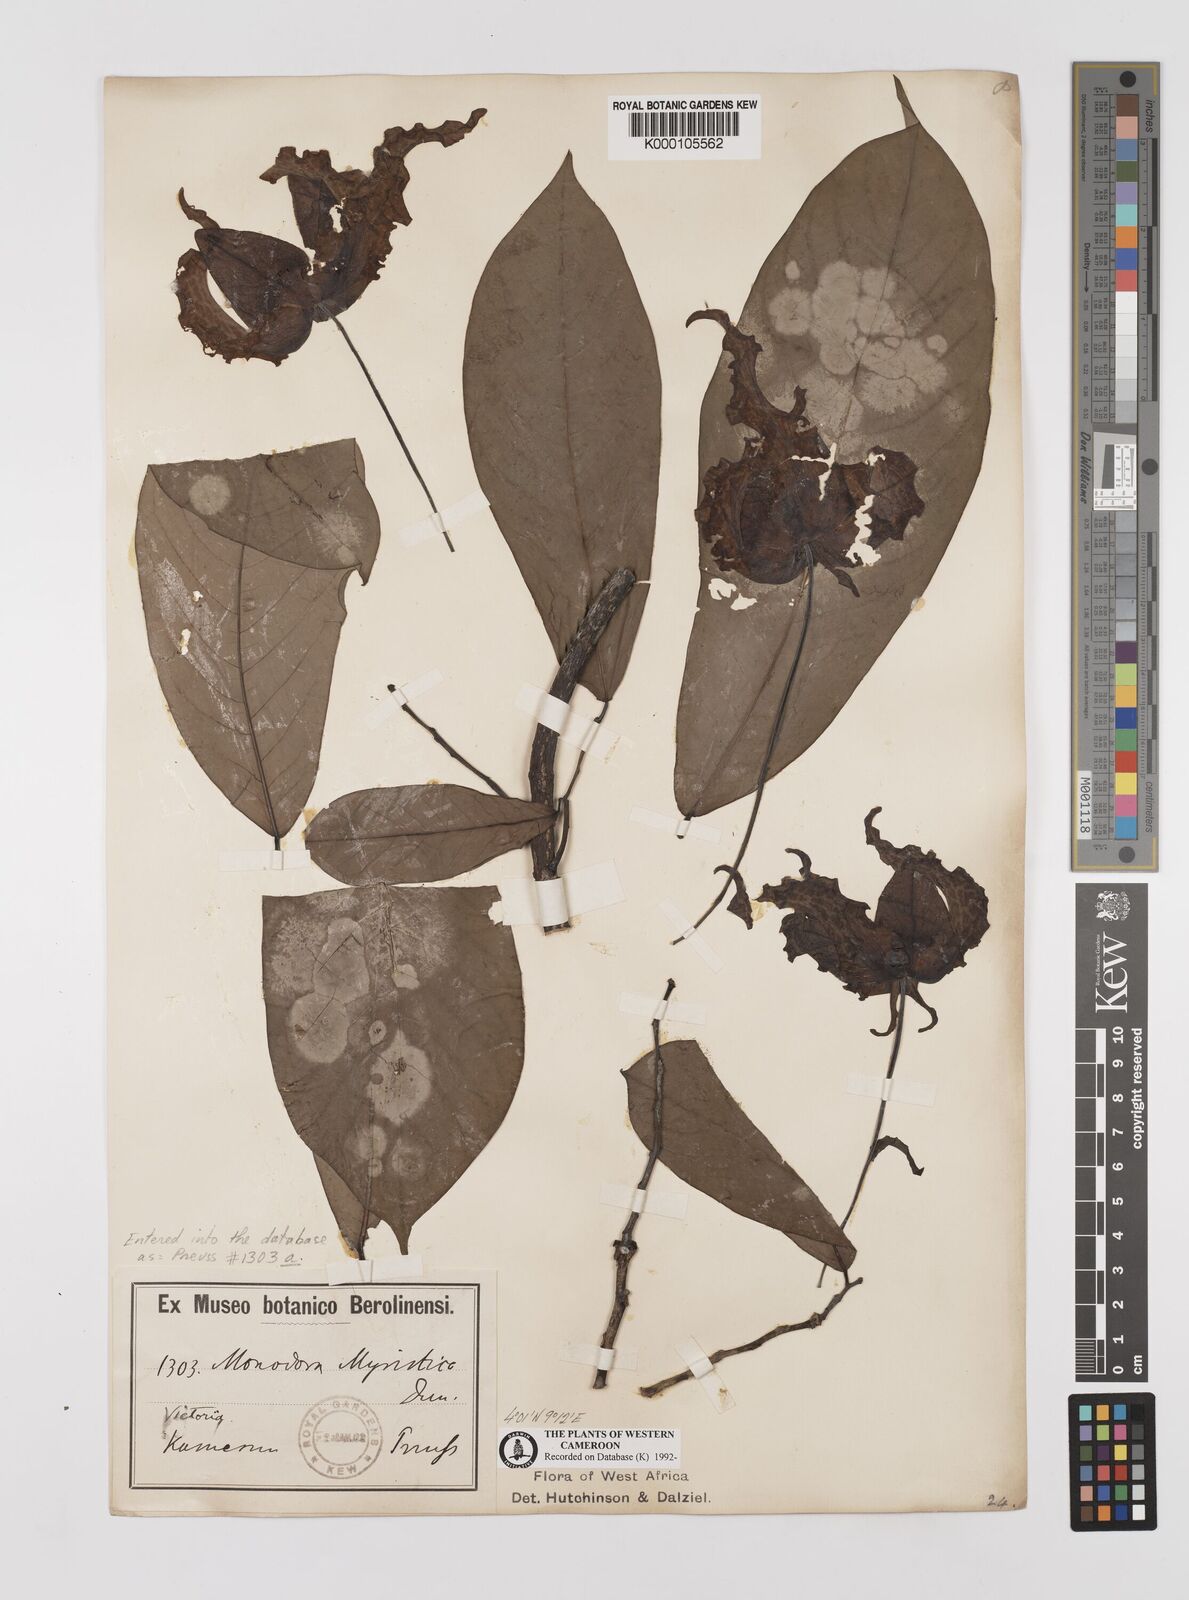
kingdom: Plantae
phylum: Tracheophyta
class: Magnoliopsida
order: Magnoliales
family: Annonaceae
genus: Monodora
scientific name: Monodora myristica
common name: African nutmeg
